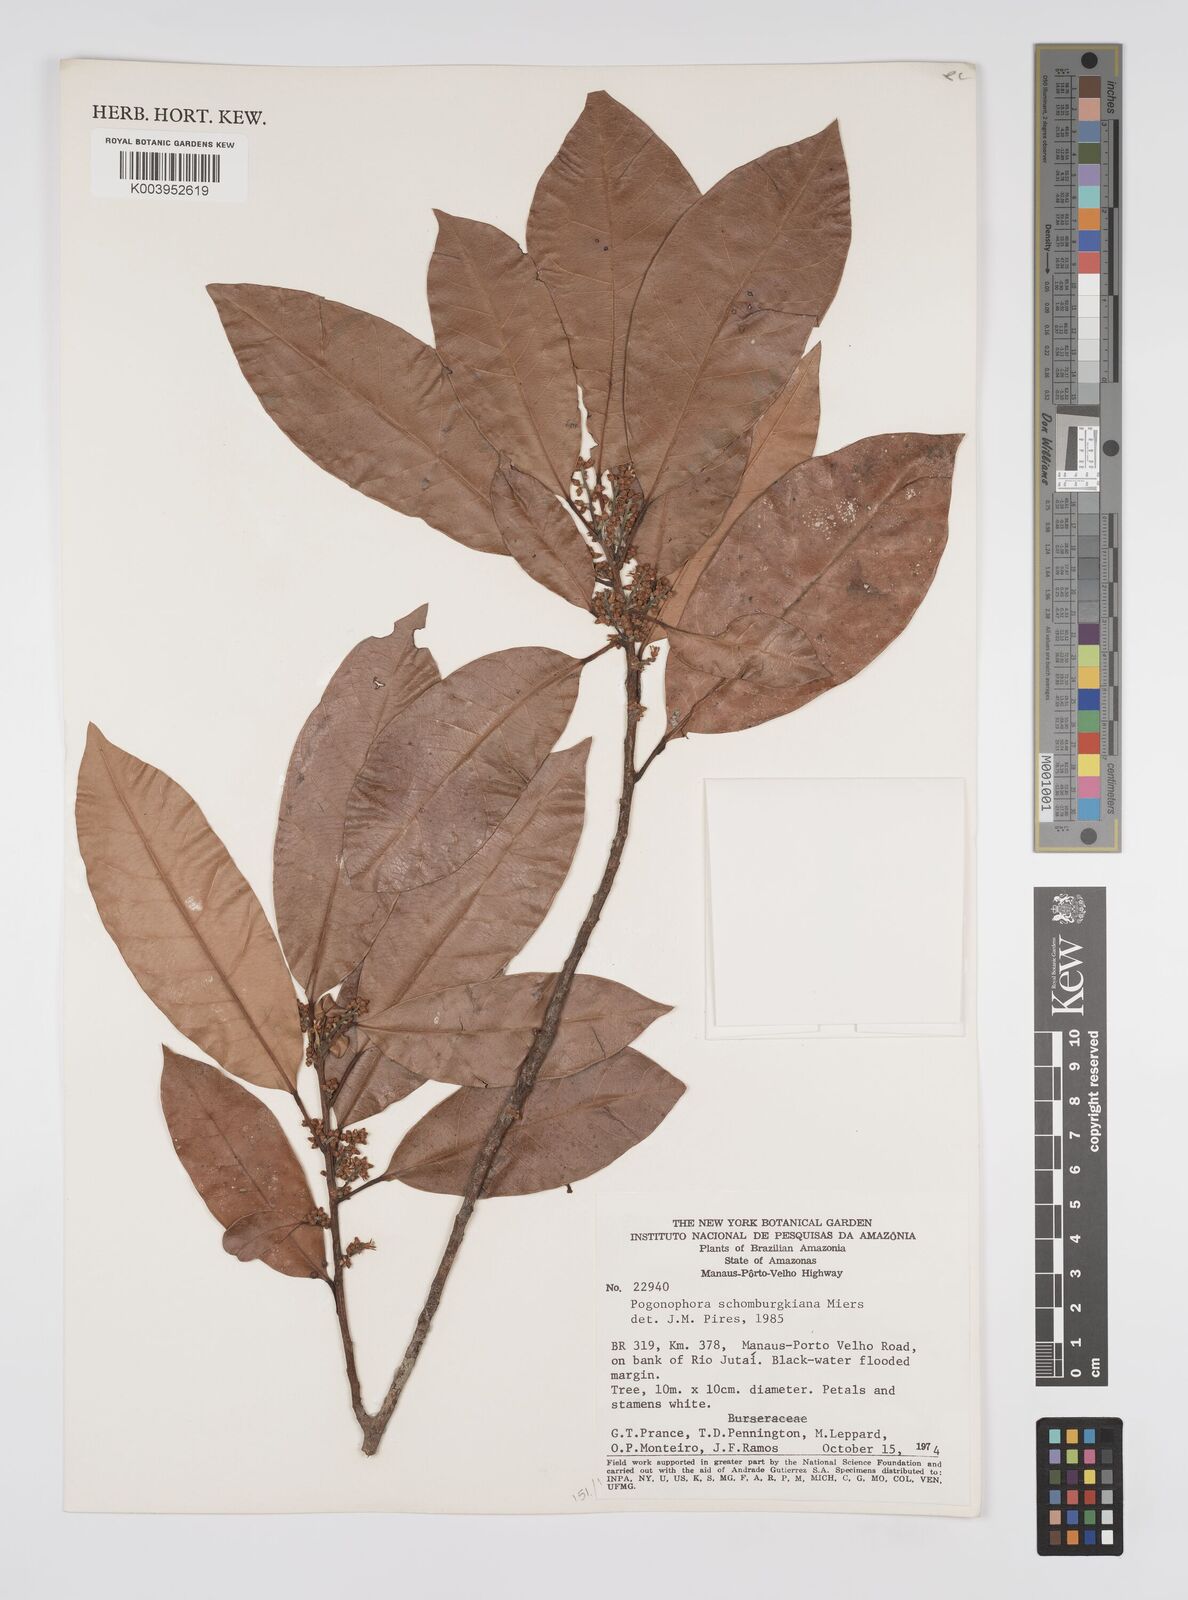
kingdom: Plantae
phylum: Tracheophyta
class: Magnoliopsida
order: Malpighiales
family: Peraceae
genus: Pogonophora
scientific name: Pogonophora schomburgkiana
